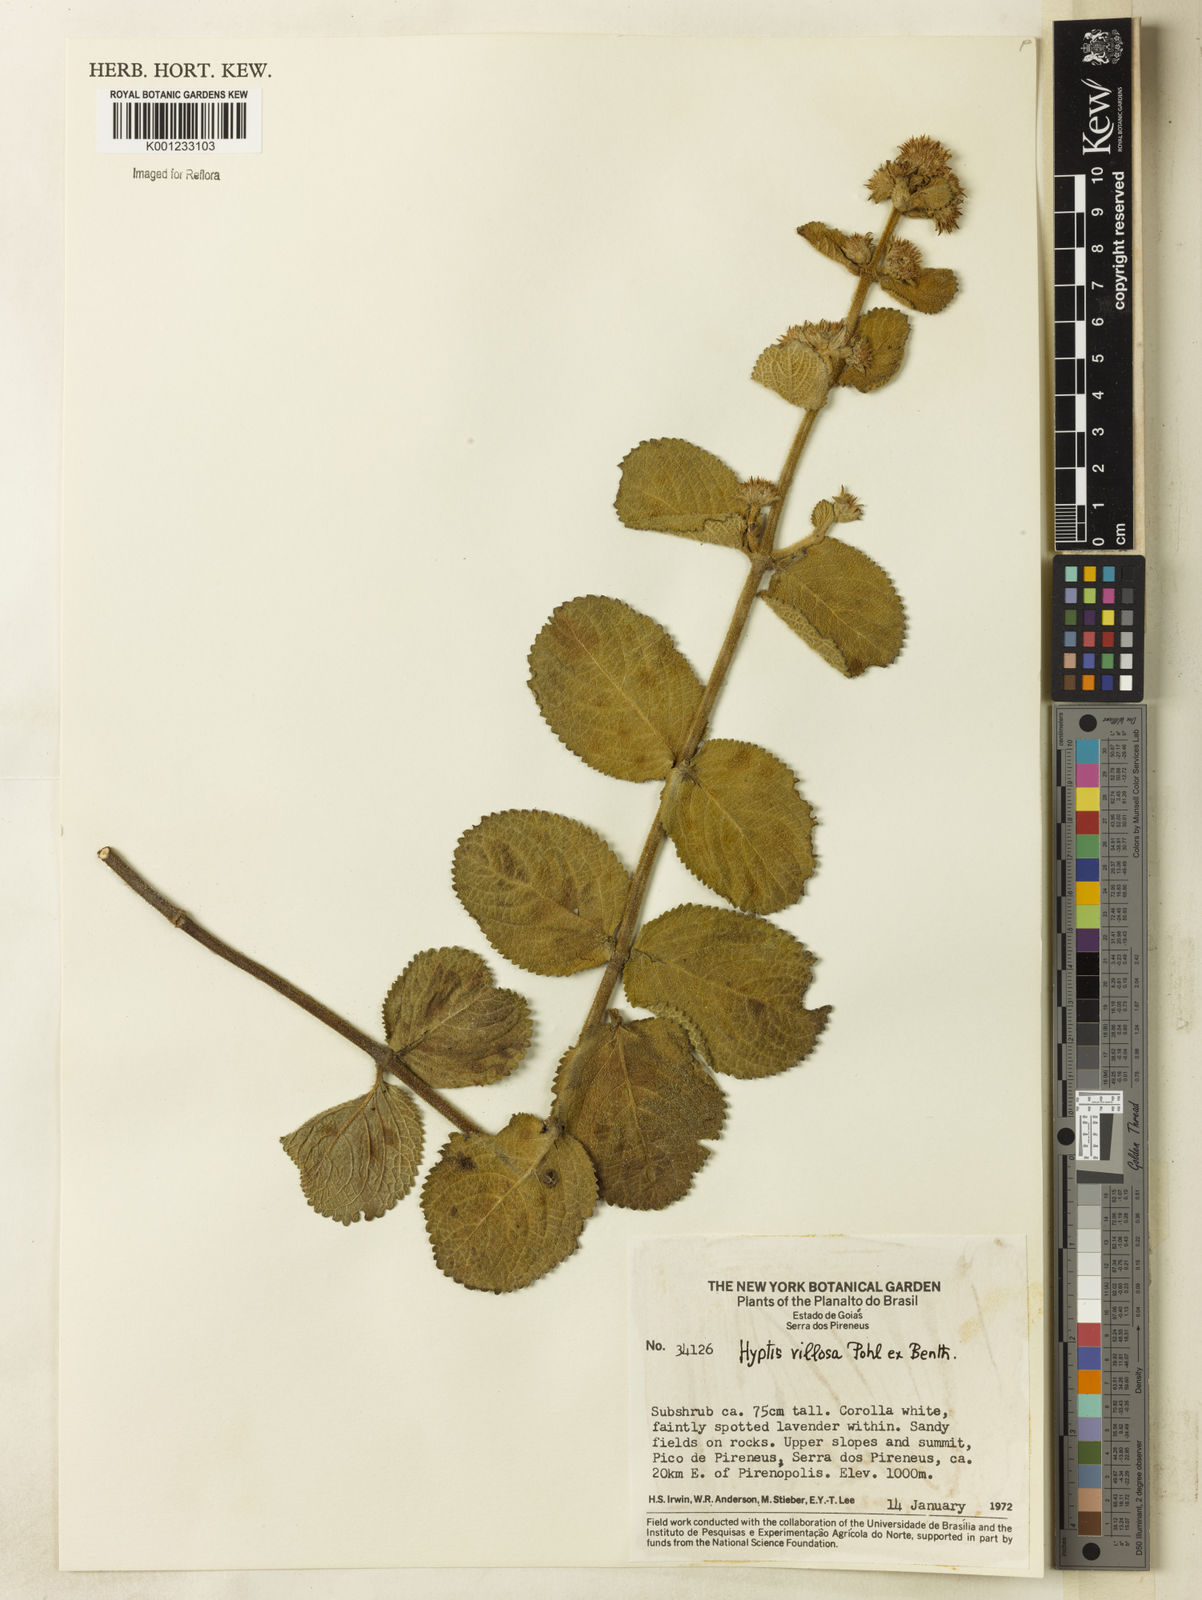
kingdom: Plantae
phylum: Tracheophyta
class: Magnoliopsida
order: Lamiales
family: Lamiaceae
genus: Hyptis
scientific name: Hyptis villosa
